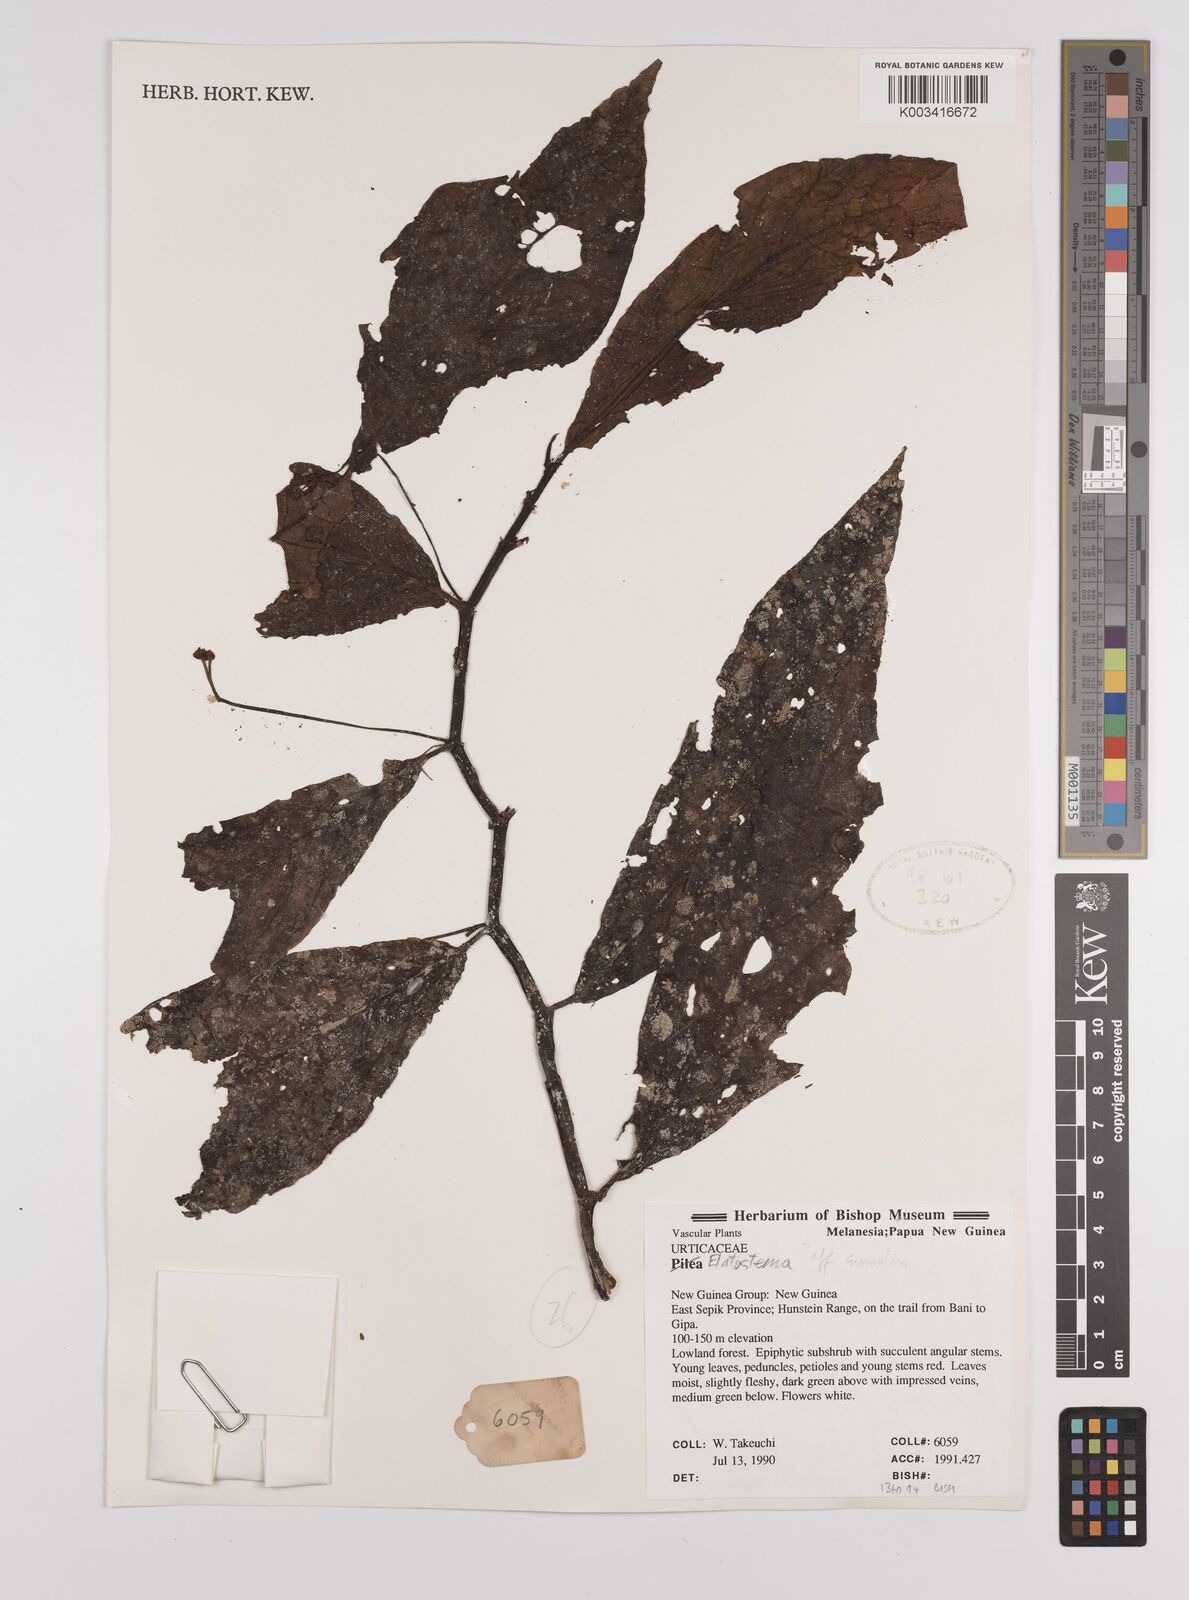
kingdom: Plantae
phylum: Tracheophyta
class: Magnoliopsida
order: Rosales
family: Urticaceae
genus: Elatostema
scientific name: Elatostema
